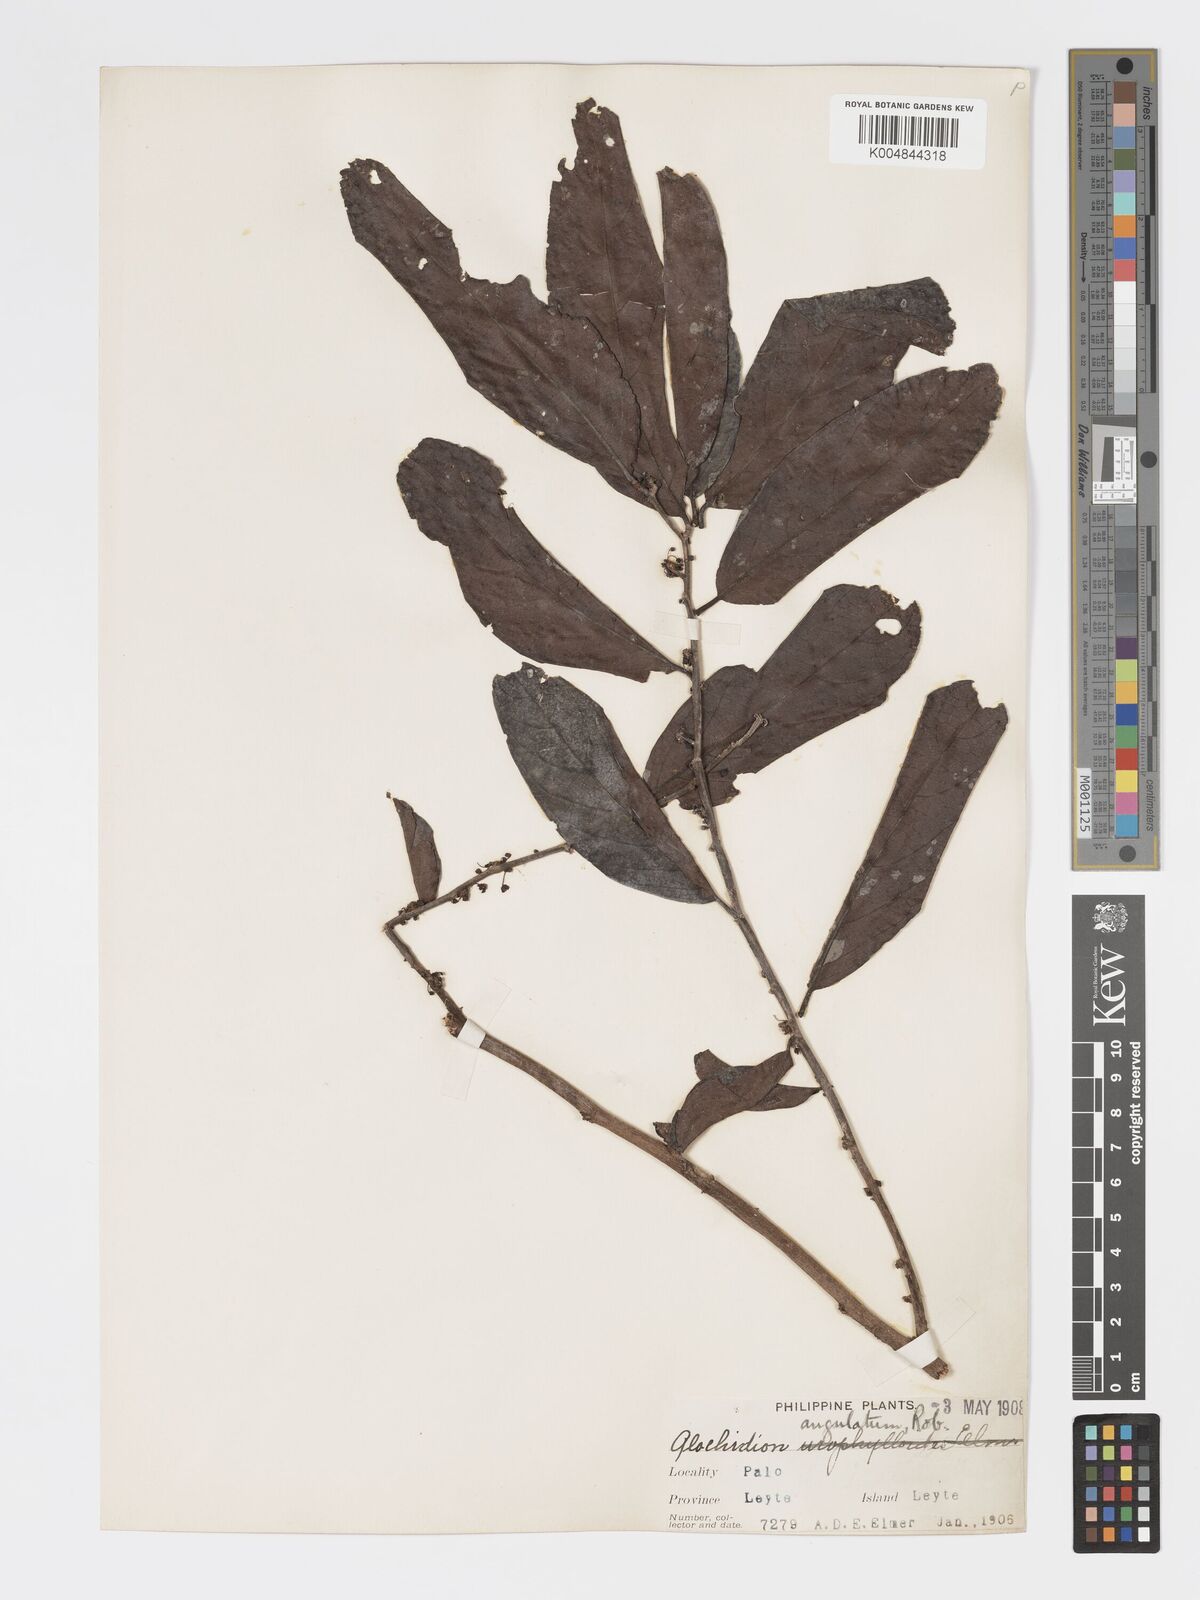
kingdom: Plantae
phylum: Tracheophyta
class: Magnoliopsida
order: Malpighiales
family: Phyllanthaceae
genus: Glochidion
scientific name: Glochidion angulatum
